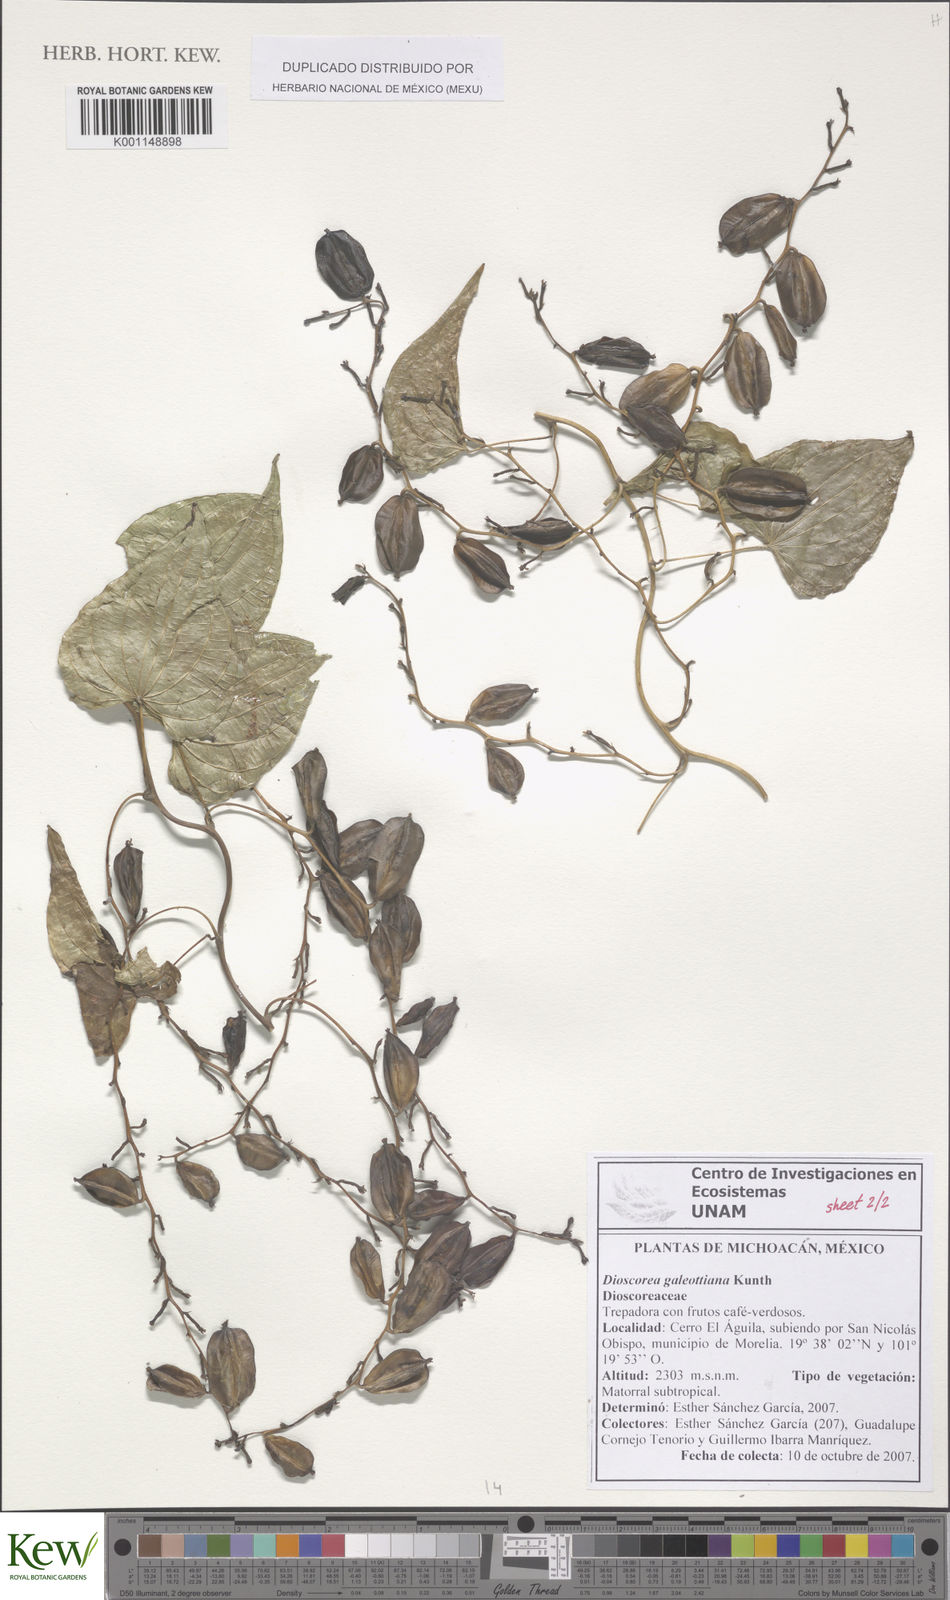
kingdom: Plantae
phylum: Tracheophyta
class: Liliopsida
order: Dioscoreales
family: Dioscoreaceae
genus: Dioscorea
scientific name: Dioscorea galeottiana
